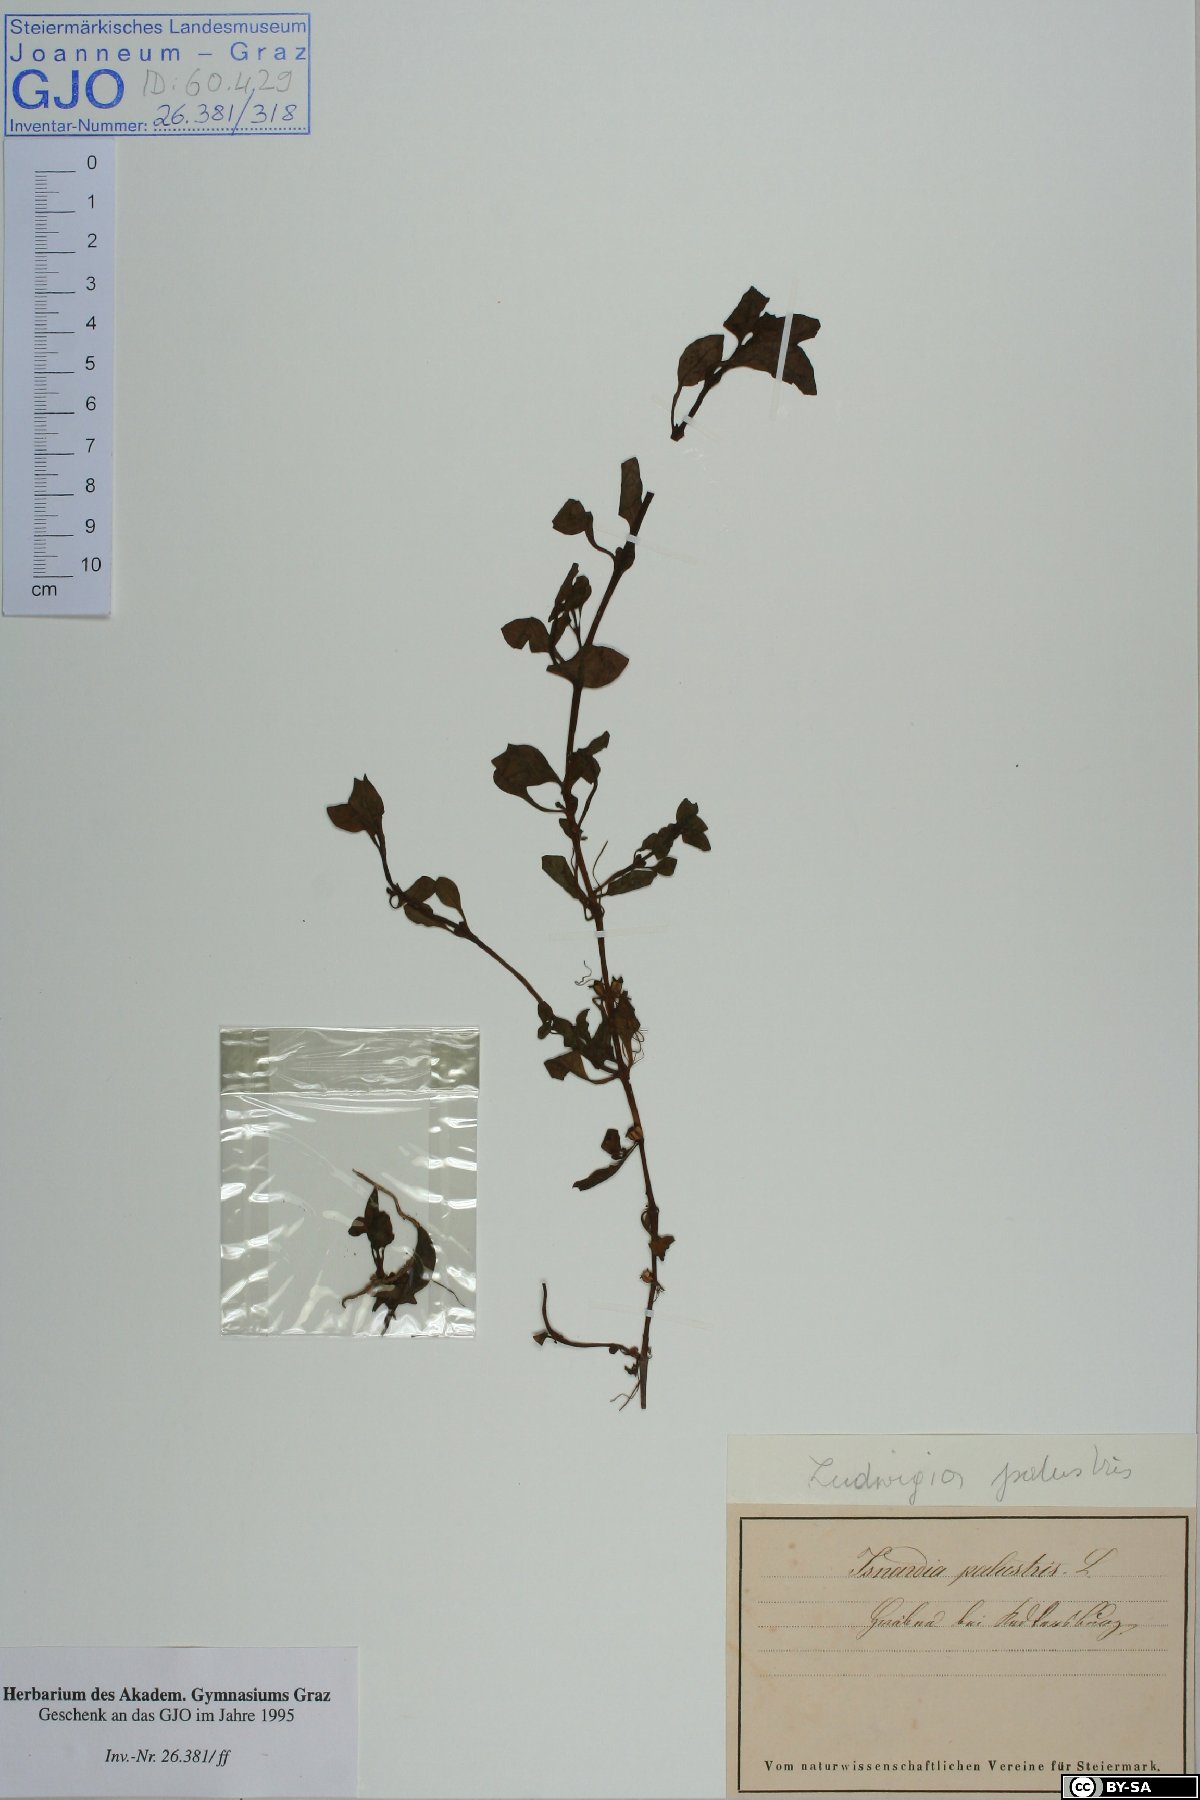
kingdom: Plantae
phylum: Tracheophyta
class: Magnoliopsida
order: Myrtales
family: Onagraceae
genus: Ludwigia
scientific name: Ludwigia palustris
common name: Hampshire-purslane
